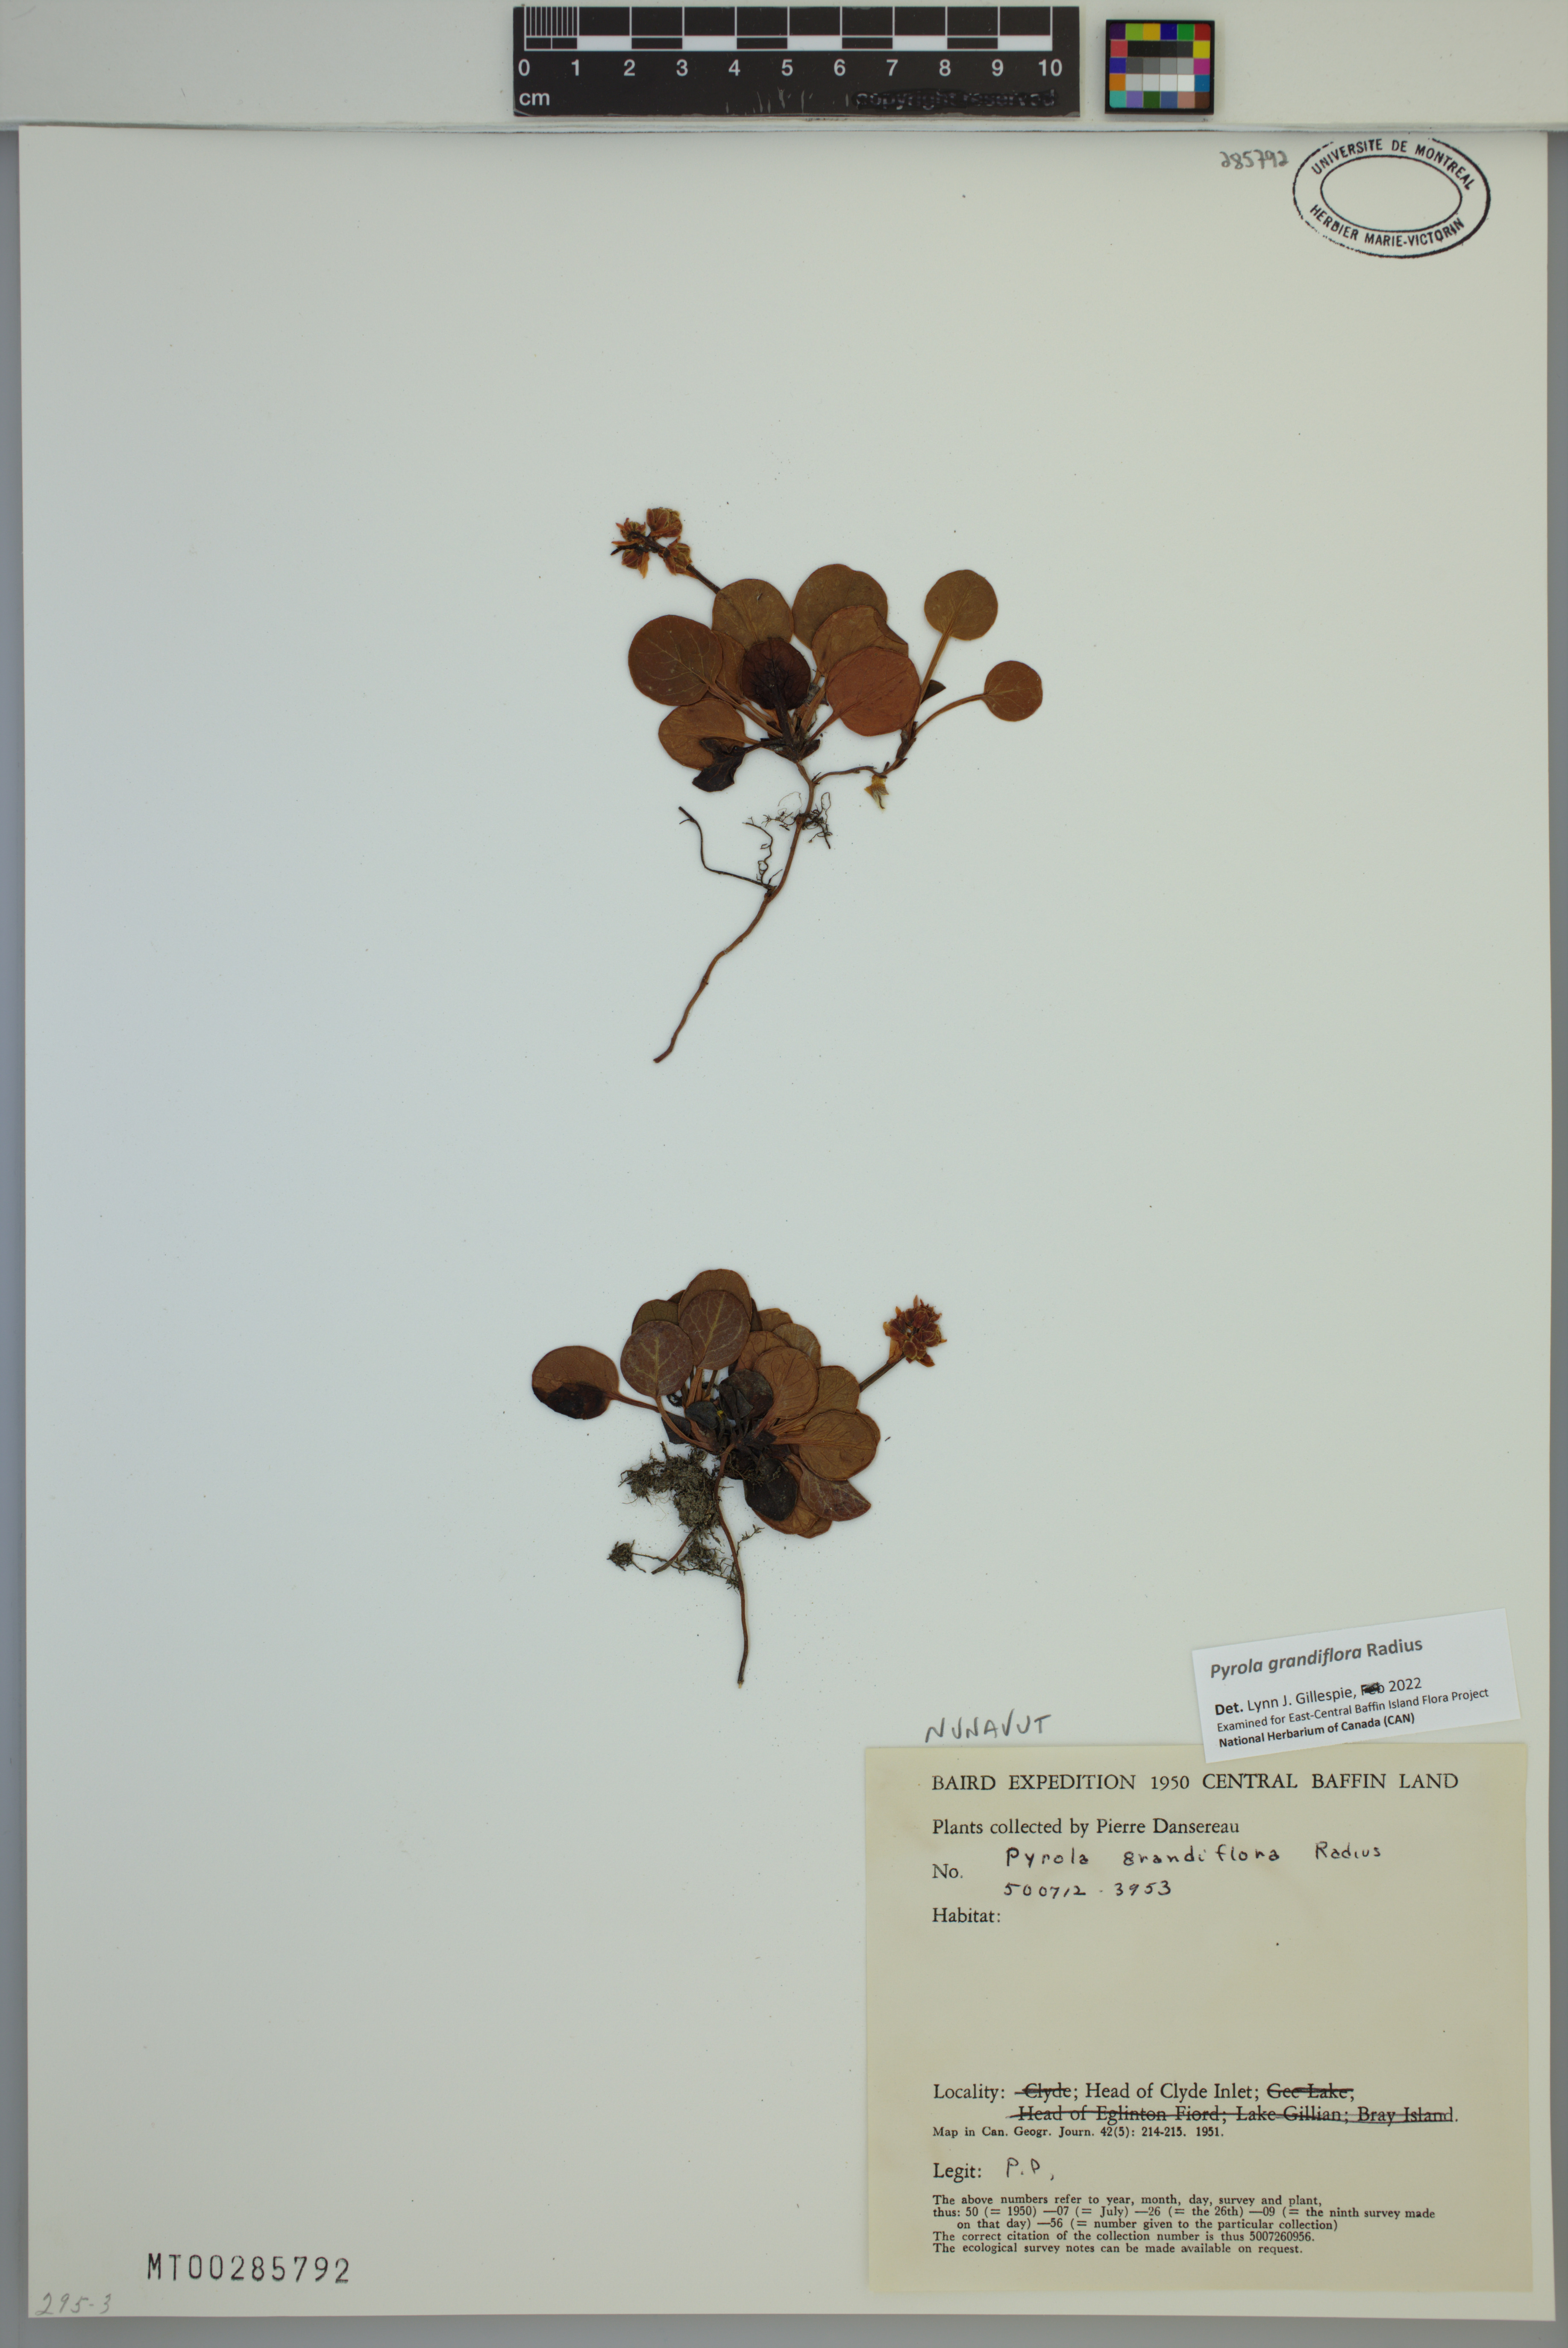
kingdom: Plantae
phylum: Tracheophyta
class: Magnoliopsida
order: Ericales
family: Ericaceae
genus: Pyrola
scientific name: Pyrola grandiflora
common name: Arctic pyrola
